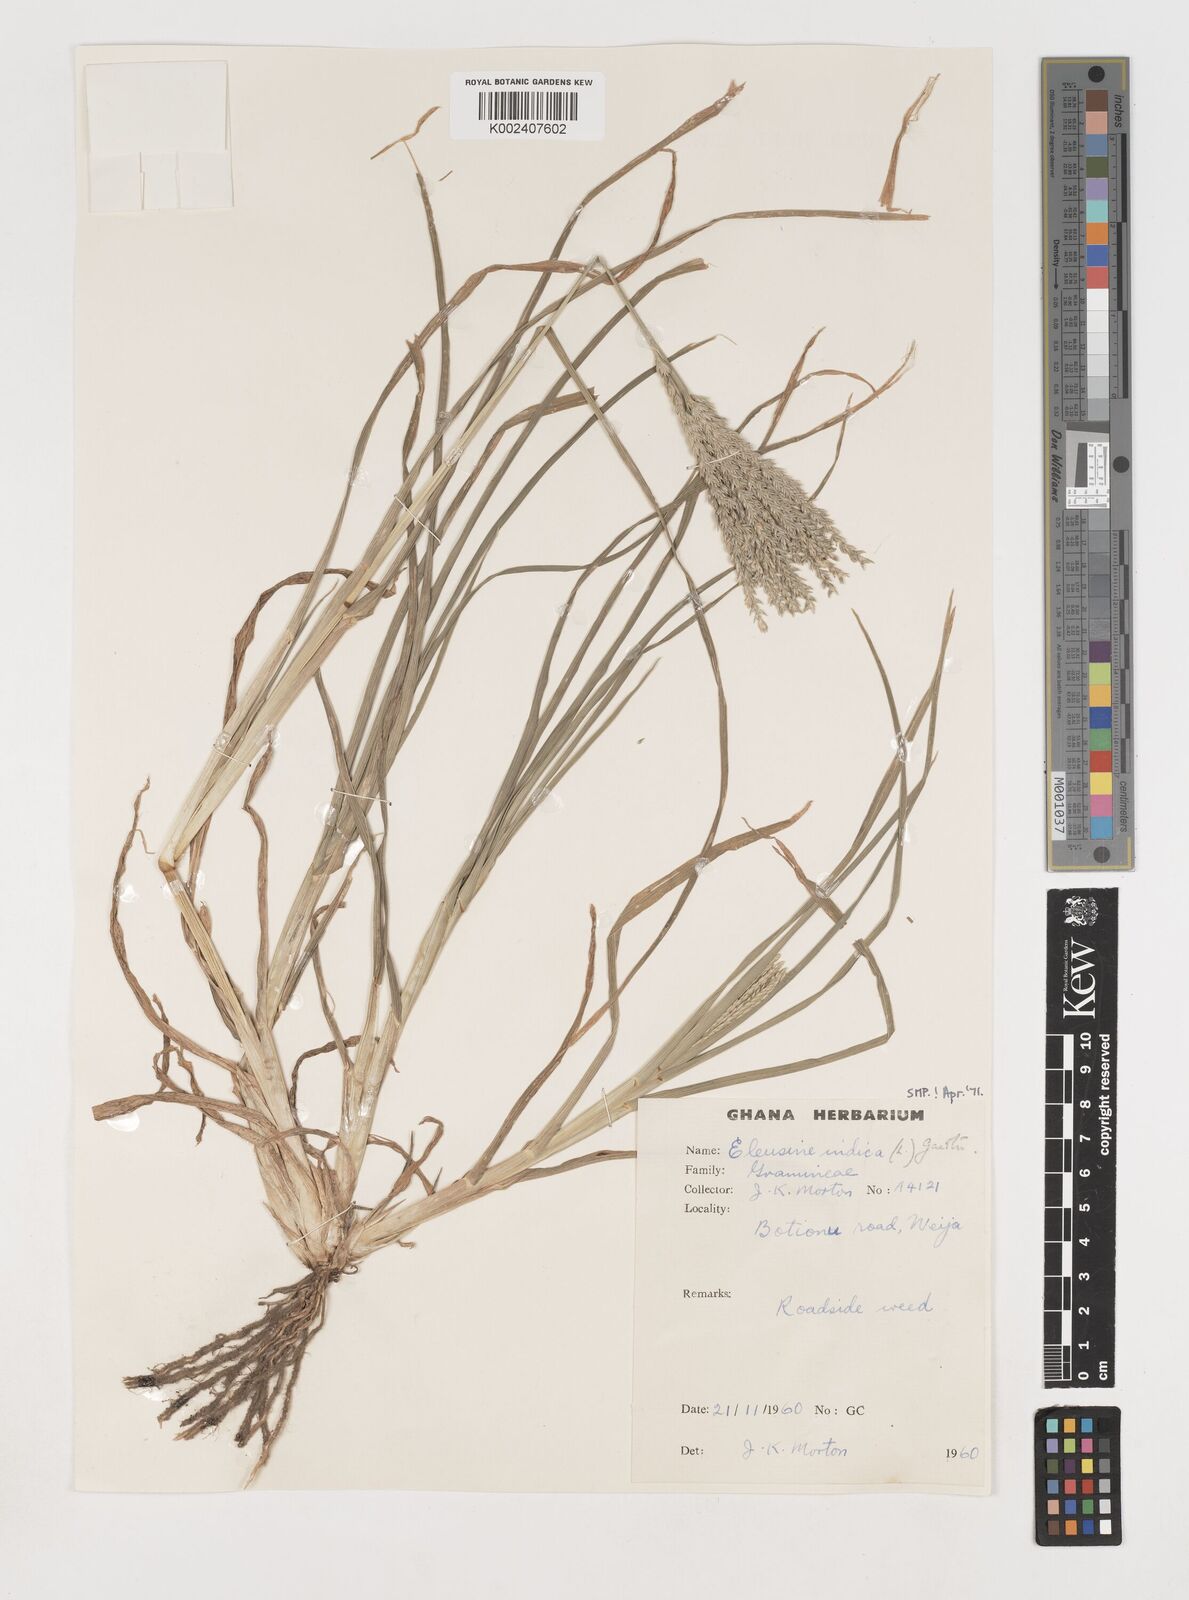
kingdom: Plantae
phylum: Tracheophyta
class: Liliopsida
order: Poales
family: Poaceae
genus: Eleusine
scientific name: Eleusine indica
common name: Yard-grass
